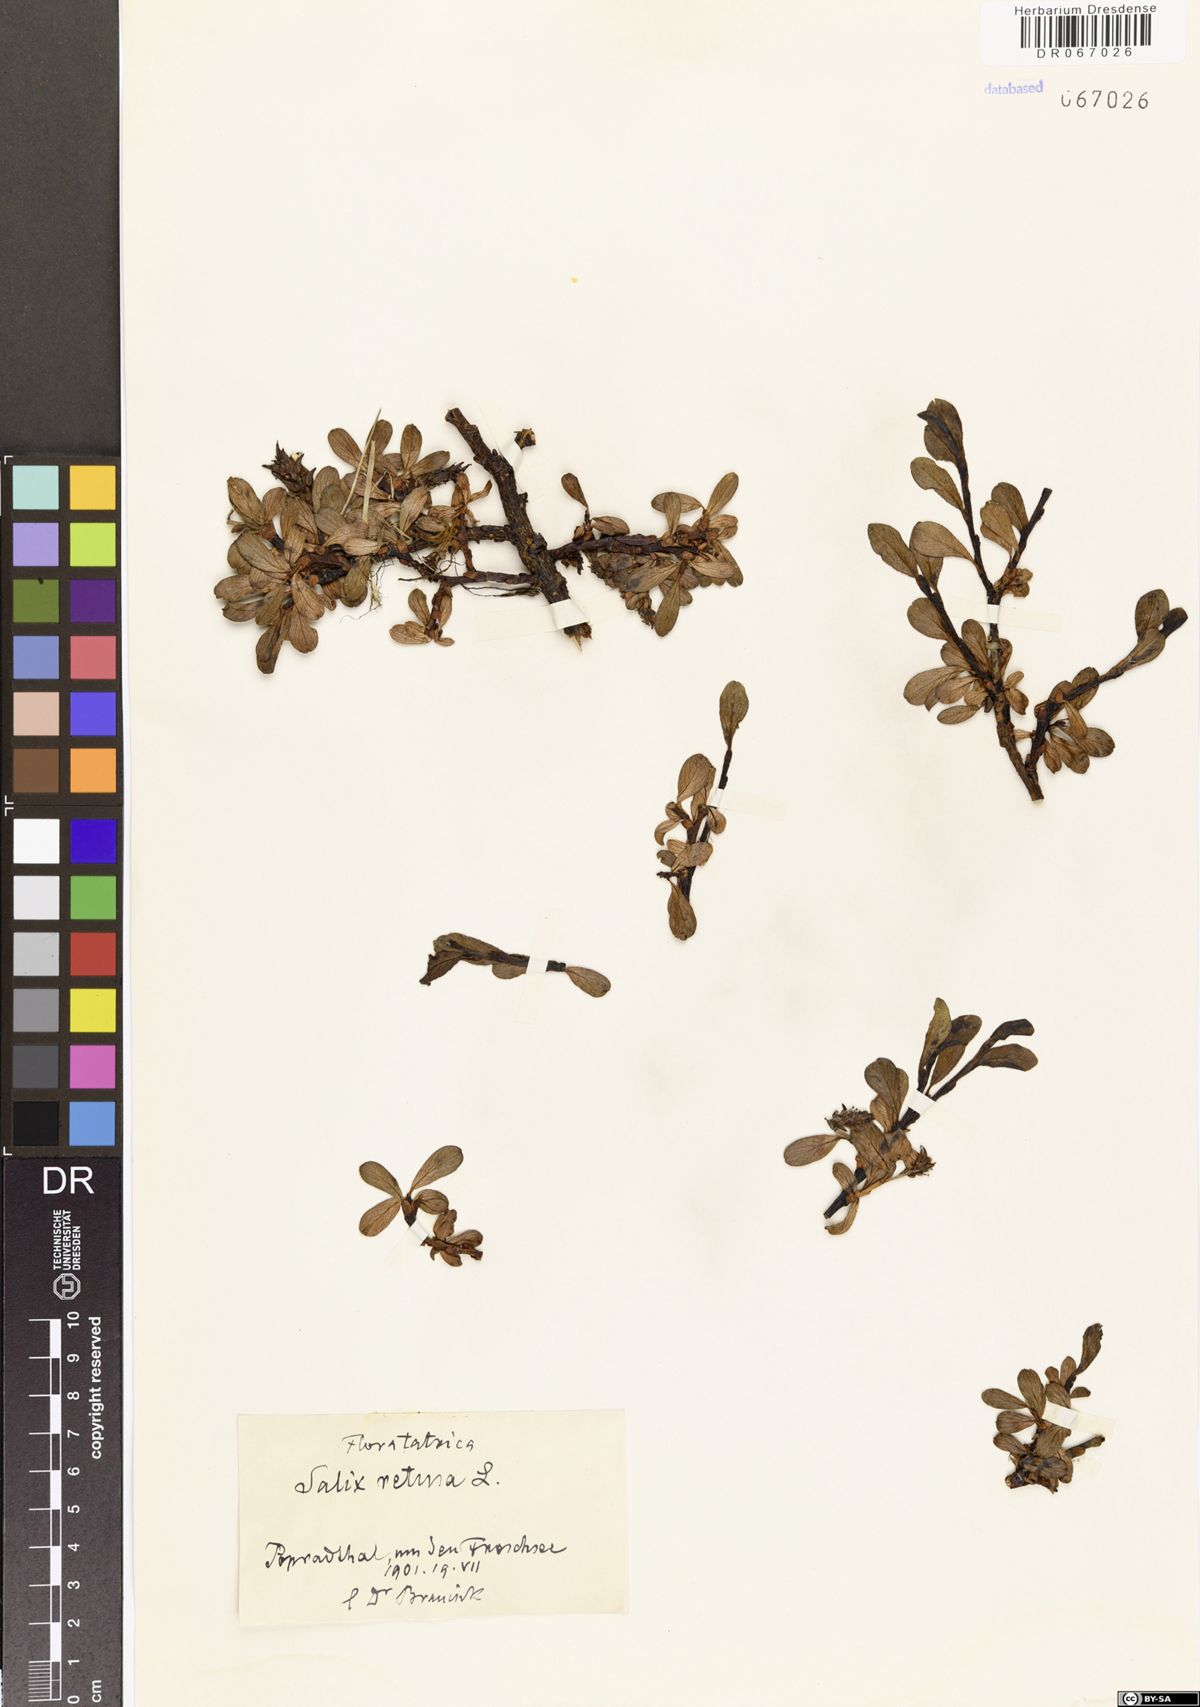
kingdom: Plantae
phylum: Tracheophyta
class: Magnoliopsida
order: Malpighiales
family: Salicaceae
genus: Salix
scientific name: Salix retusa
